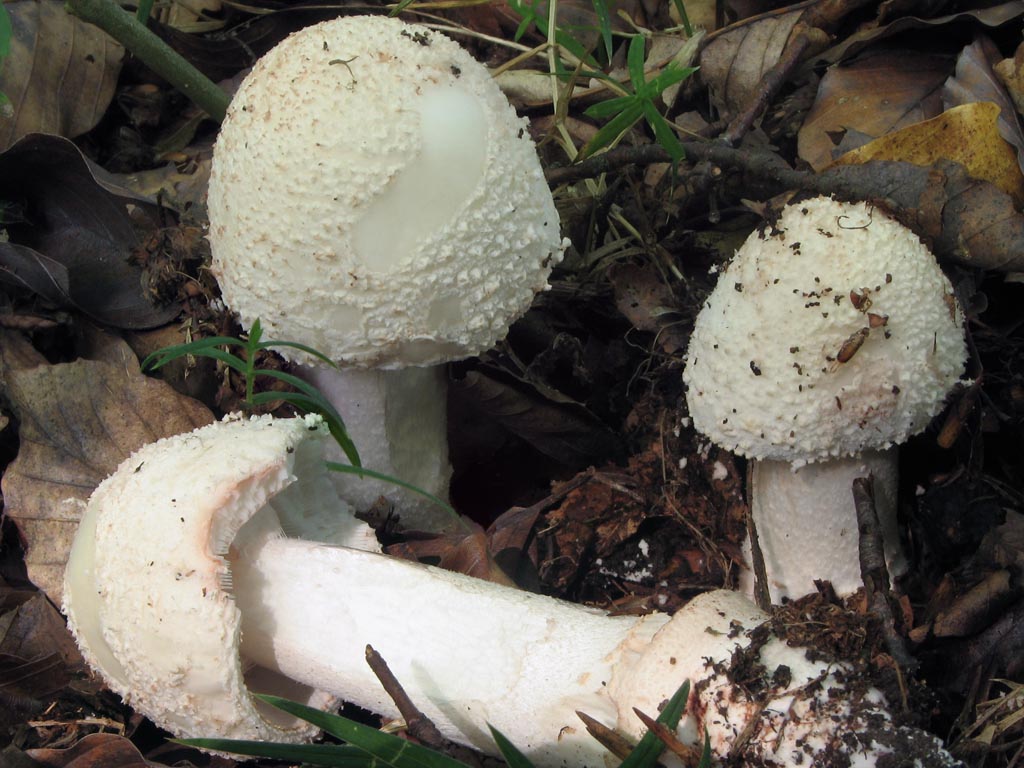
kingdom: Fungi
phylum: Basidiomycota
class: Agaricomycetes
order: Agaricales
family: Amanitaceae
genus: Amanita
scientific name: Amanita rubescens
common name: rødmende fluesvamp
